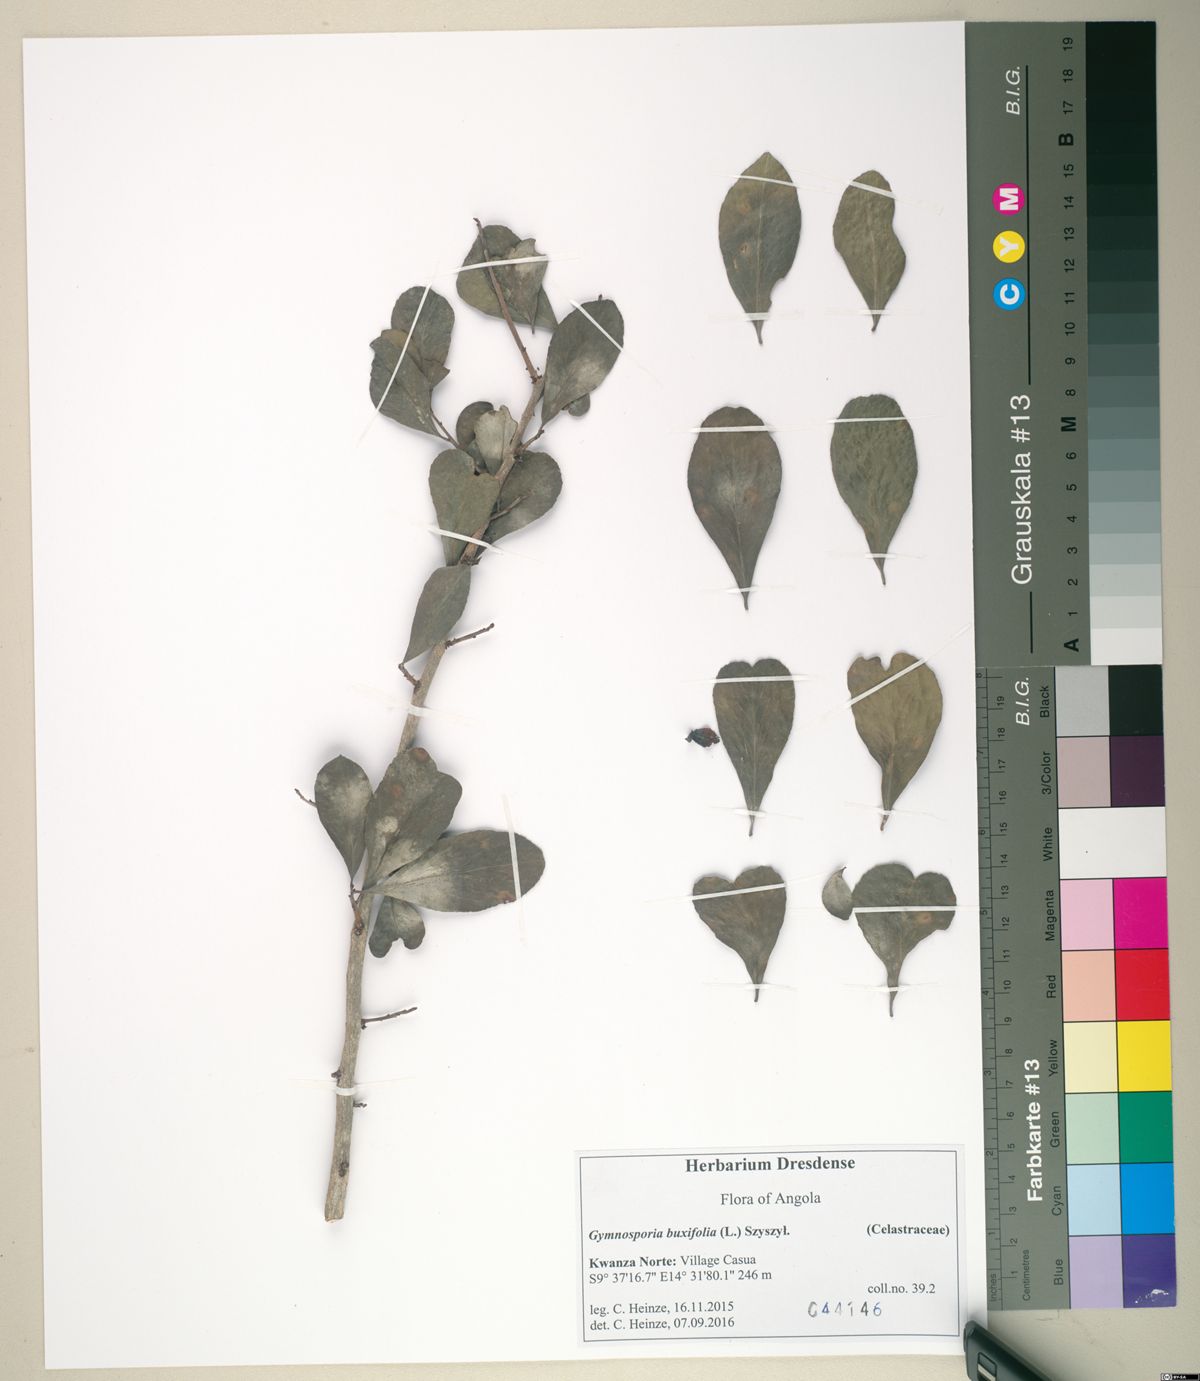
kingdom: Plantae
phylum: Tracheophyta
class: Magnoliopsida
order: Celastrales
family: Celastraceae
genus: Gymnosporia
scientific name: Gymnosporia heterophylla
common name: Angle-stem spikethorn
